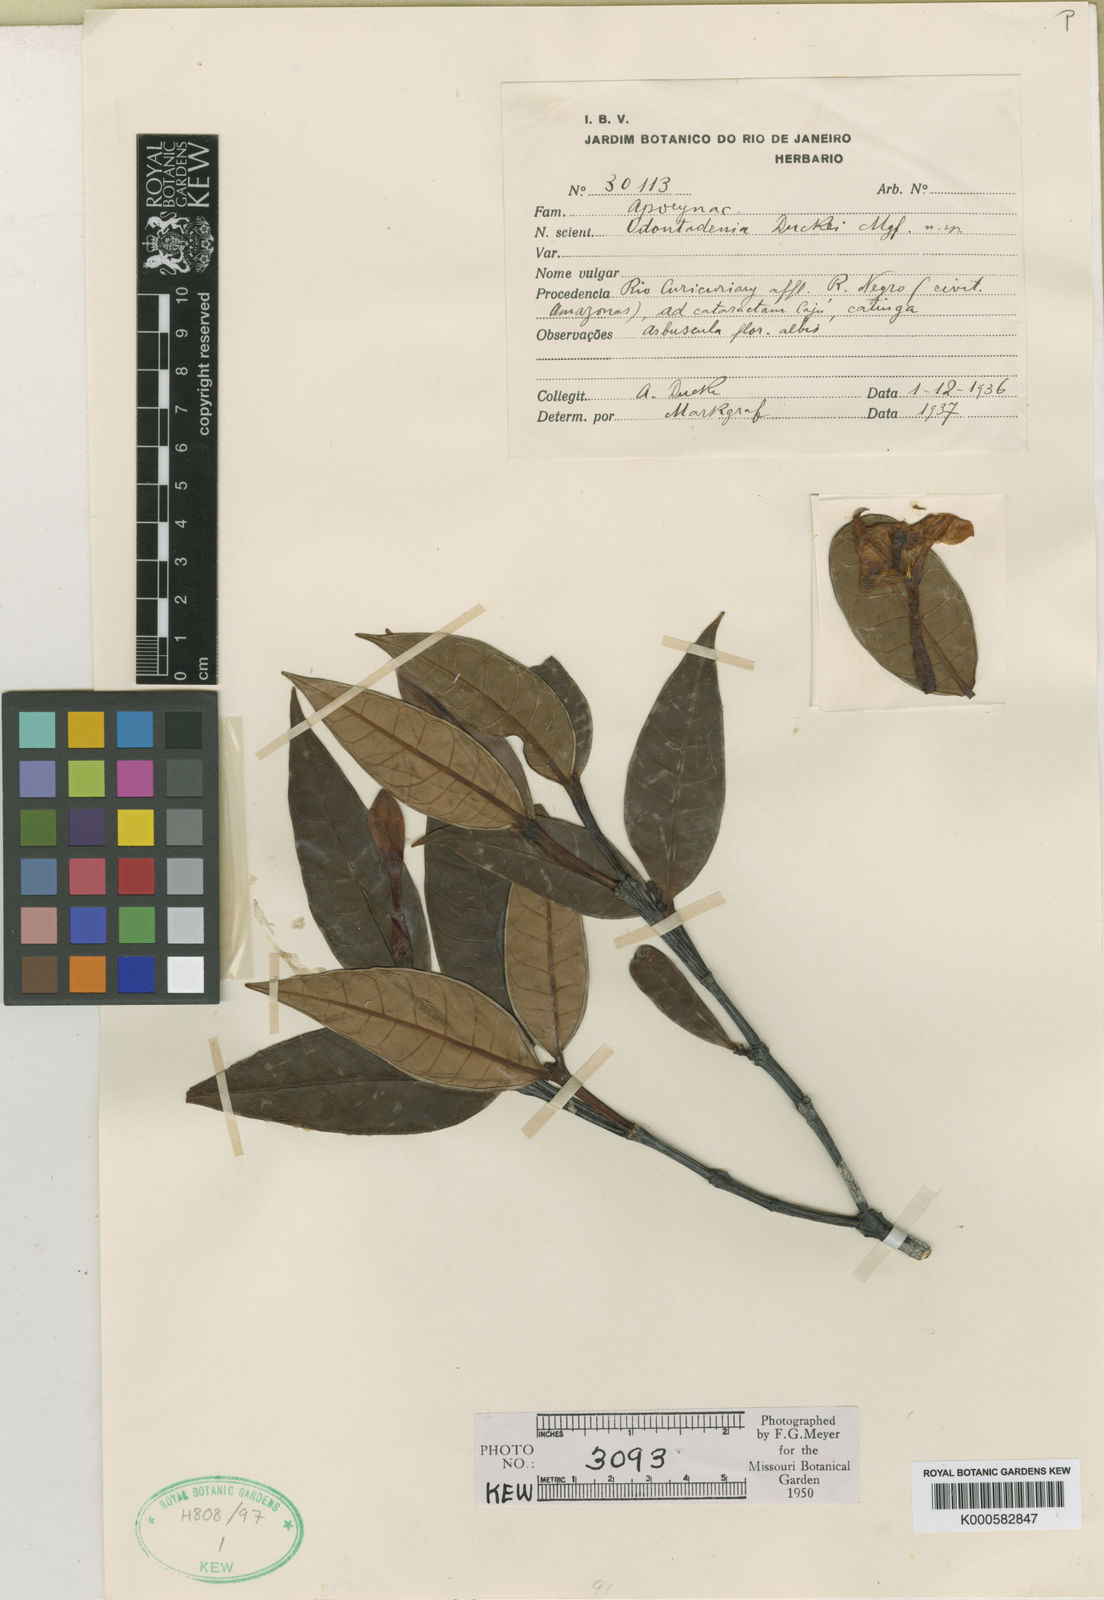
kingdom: Plantae
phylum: Tracheophyta
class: Magnoliopsida
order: Gentianales
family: Apocynaceae
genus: Mandevilla
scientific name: Mandevilla
